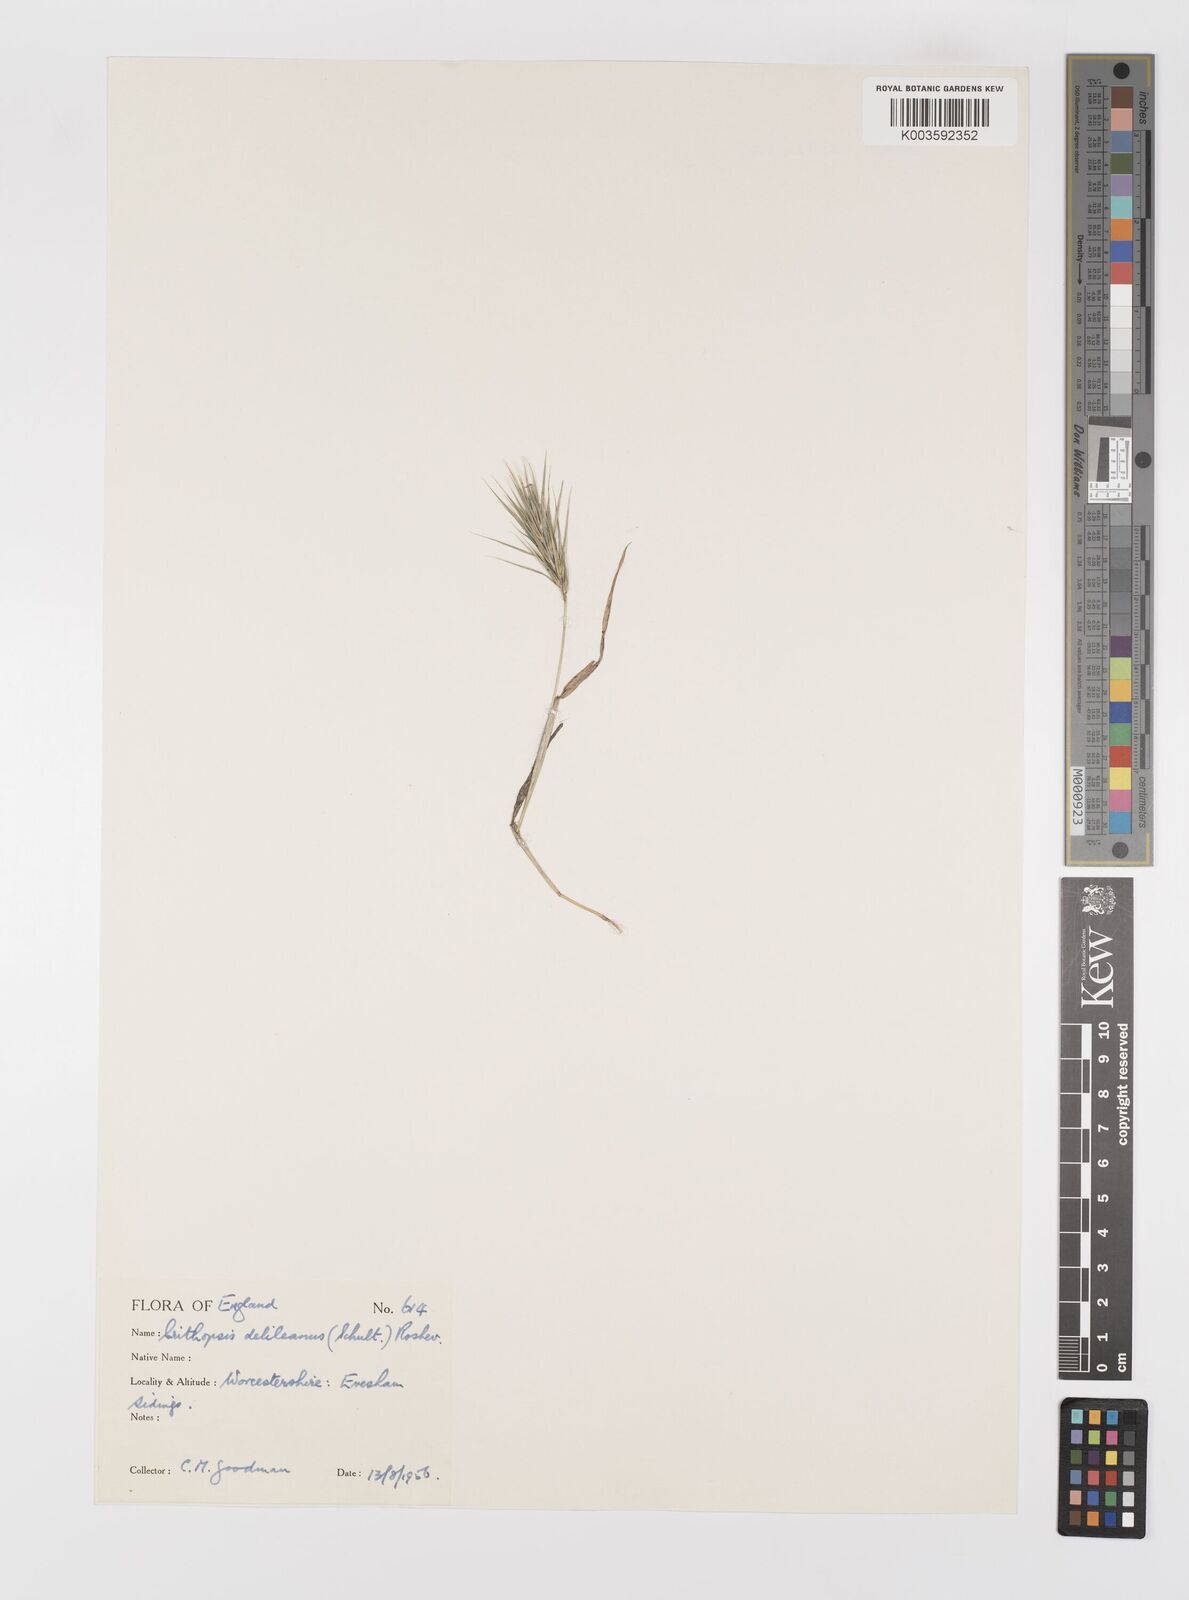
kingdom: Plantae
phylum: Tracheophyta
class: Liliopsida
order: Poales
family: Poaceae
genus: Crithopsis
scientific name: Crithopsis delileana
